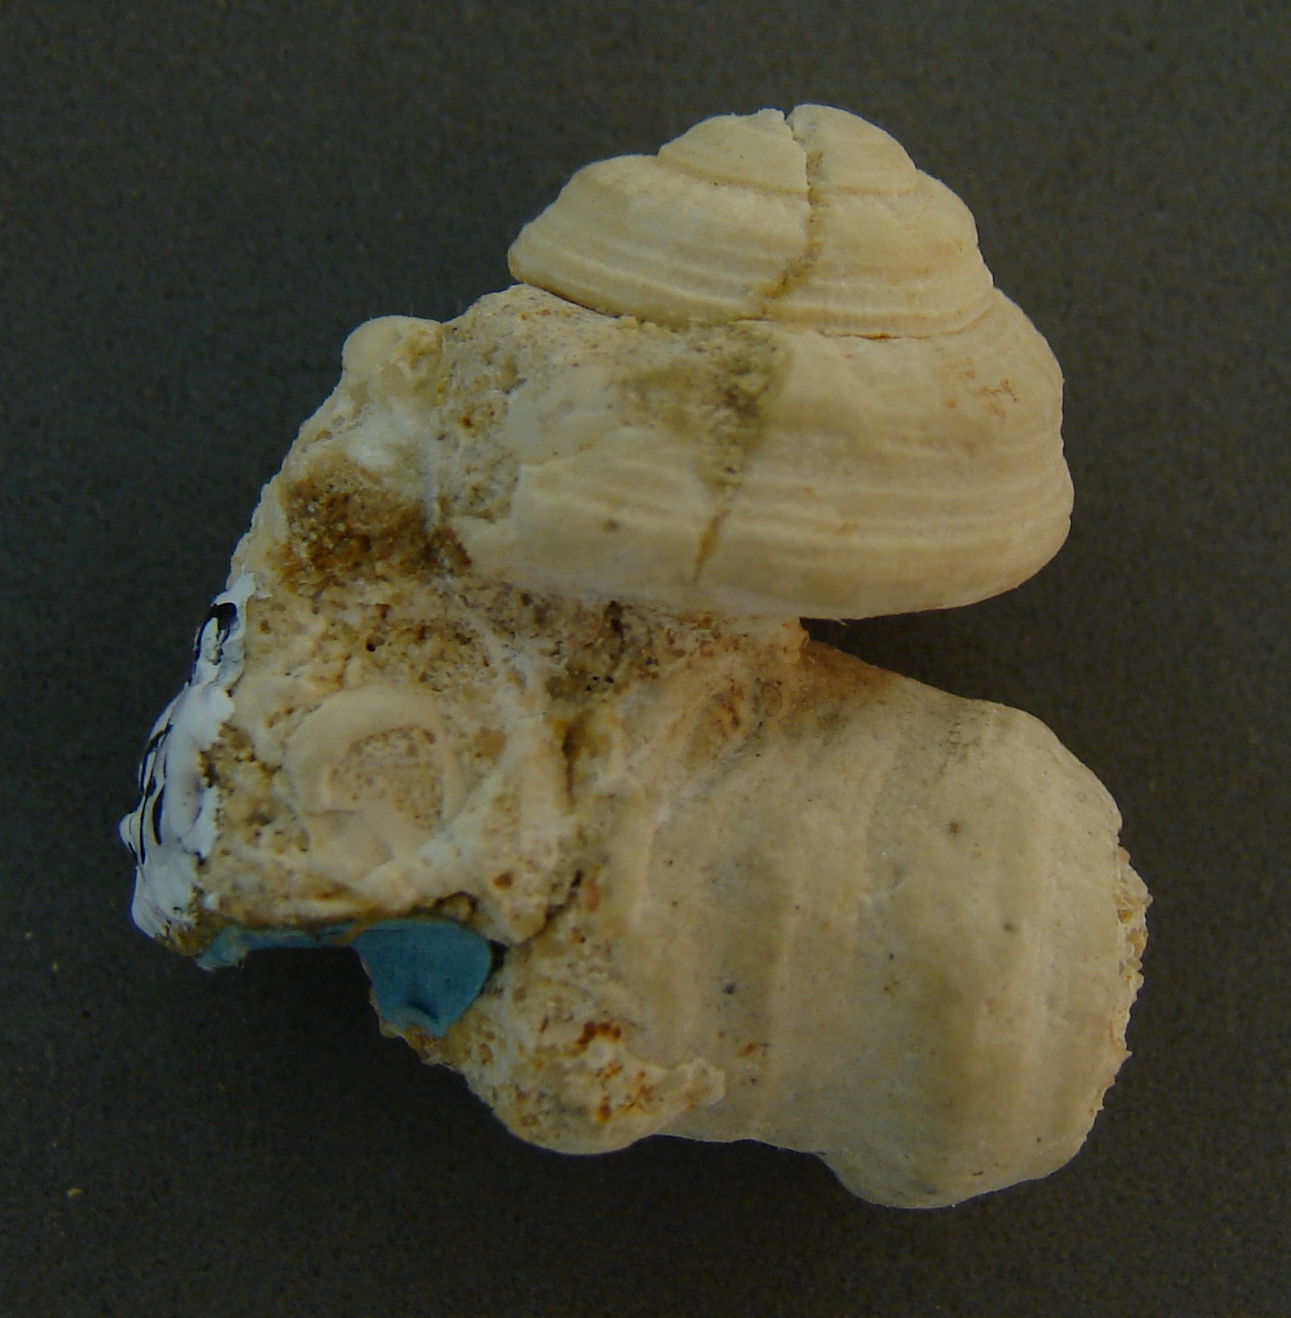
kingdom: Animalia
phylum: Mollusca
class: Gastropoda
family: Raphistomatidae
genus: Anodomaria
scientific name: Anodomaria schroederi
